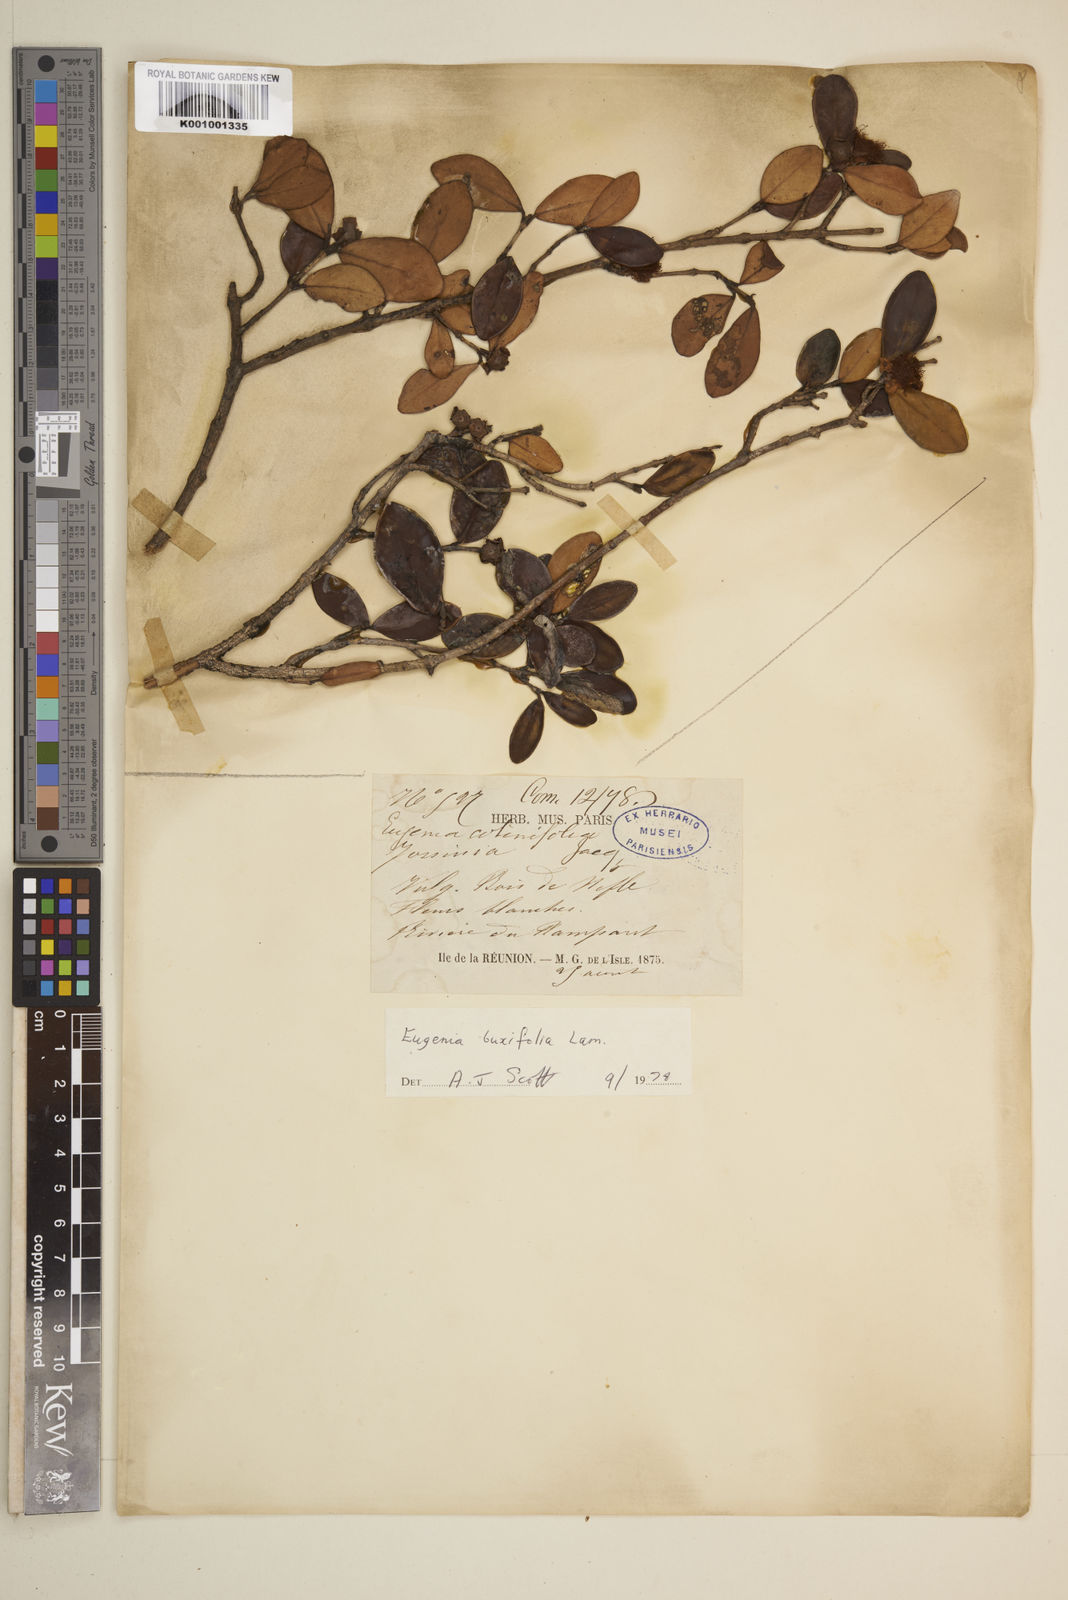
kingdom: Plantae
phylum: Tracheophyta
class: Magnoliopsida
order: Myrtales
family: Myrtaceae
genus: Eugenia
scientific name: Eugenia buxifolia
